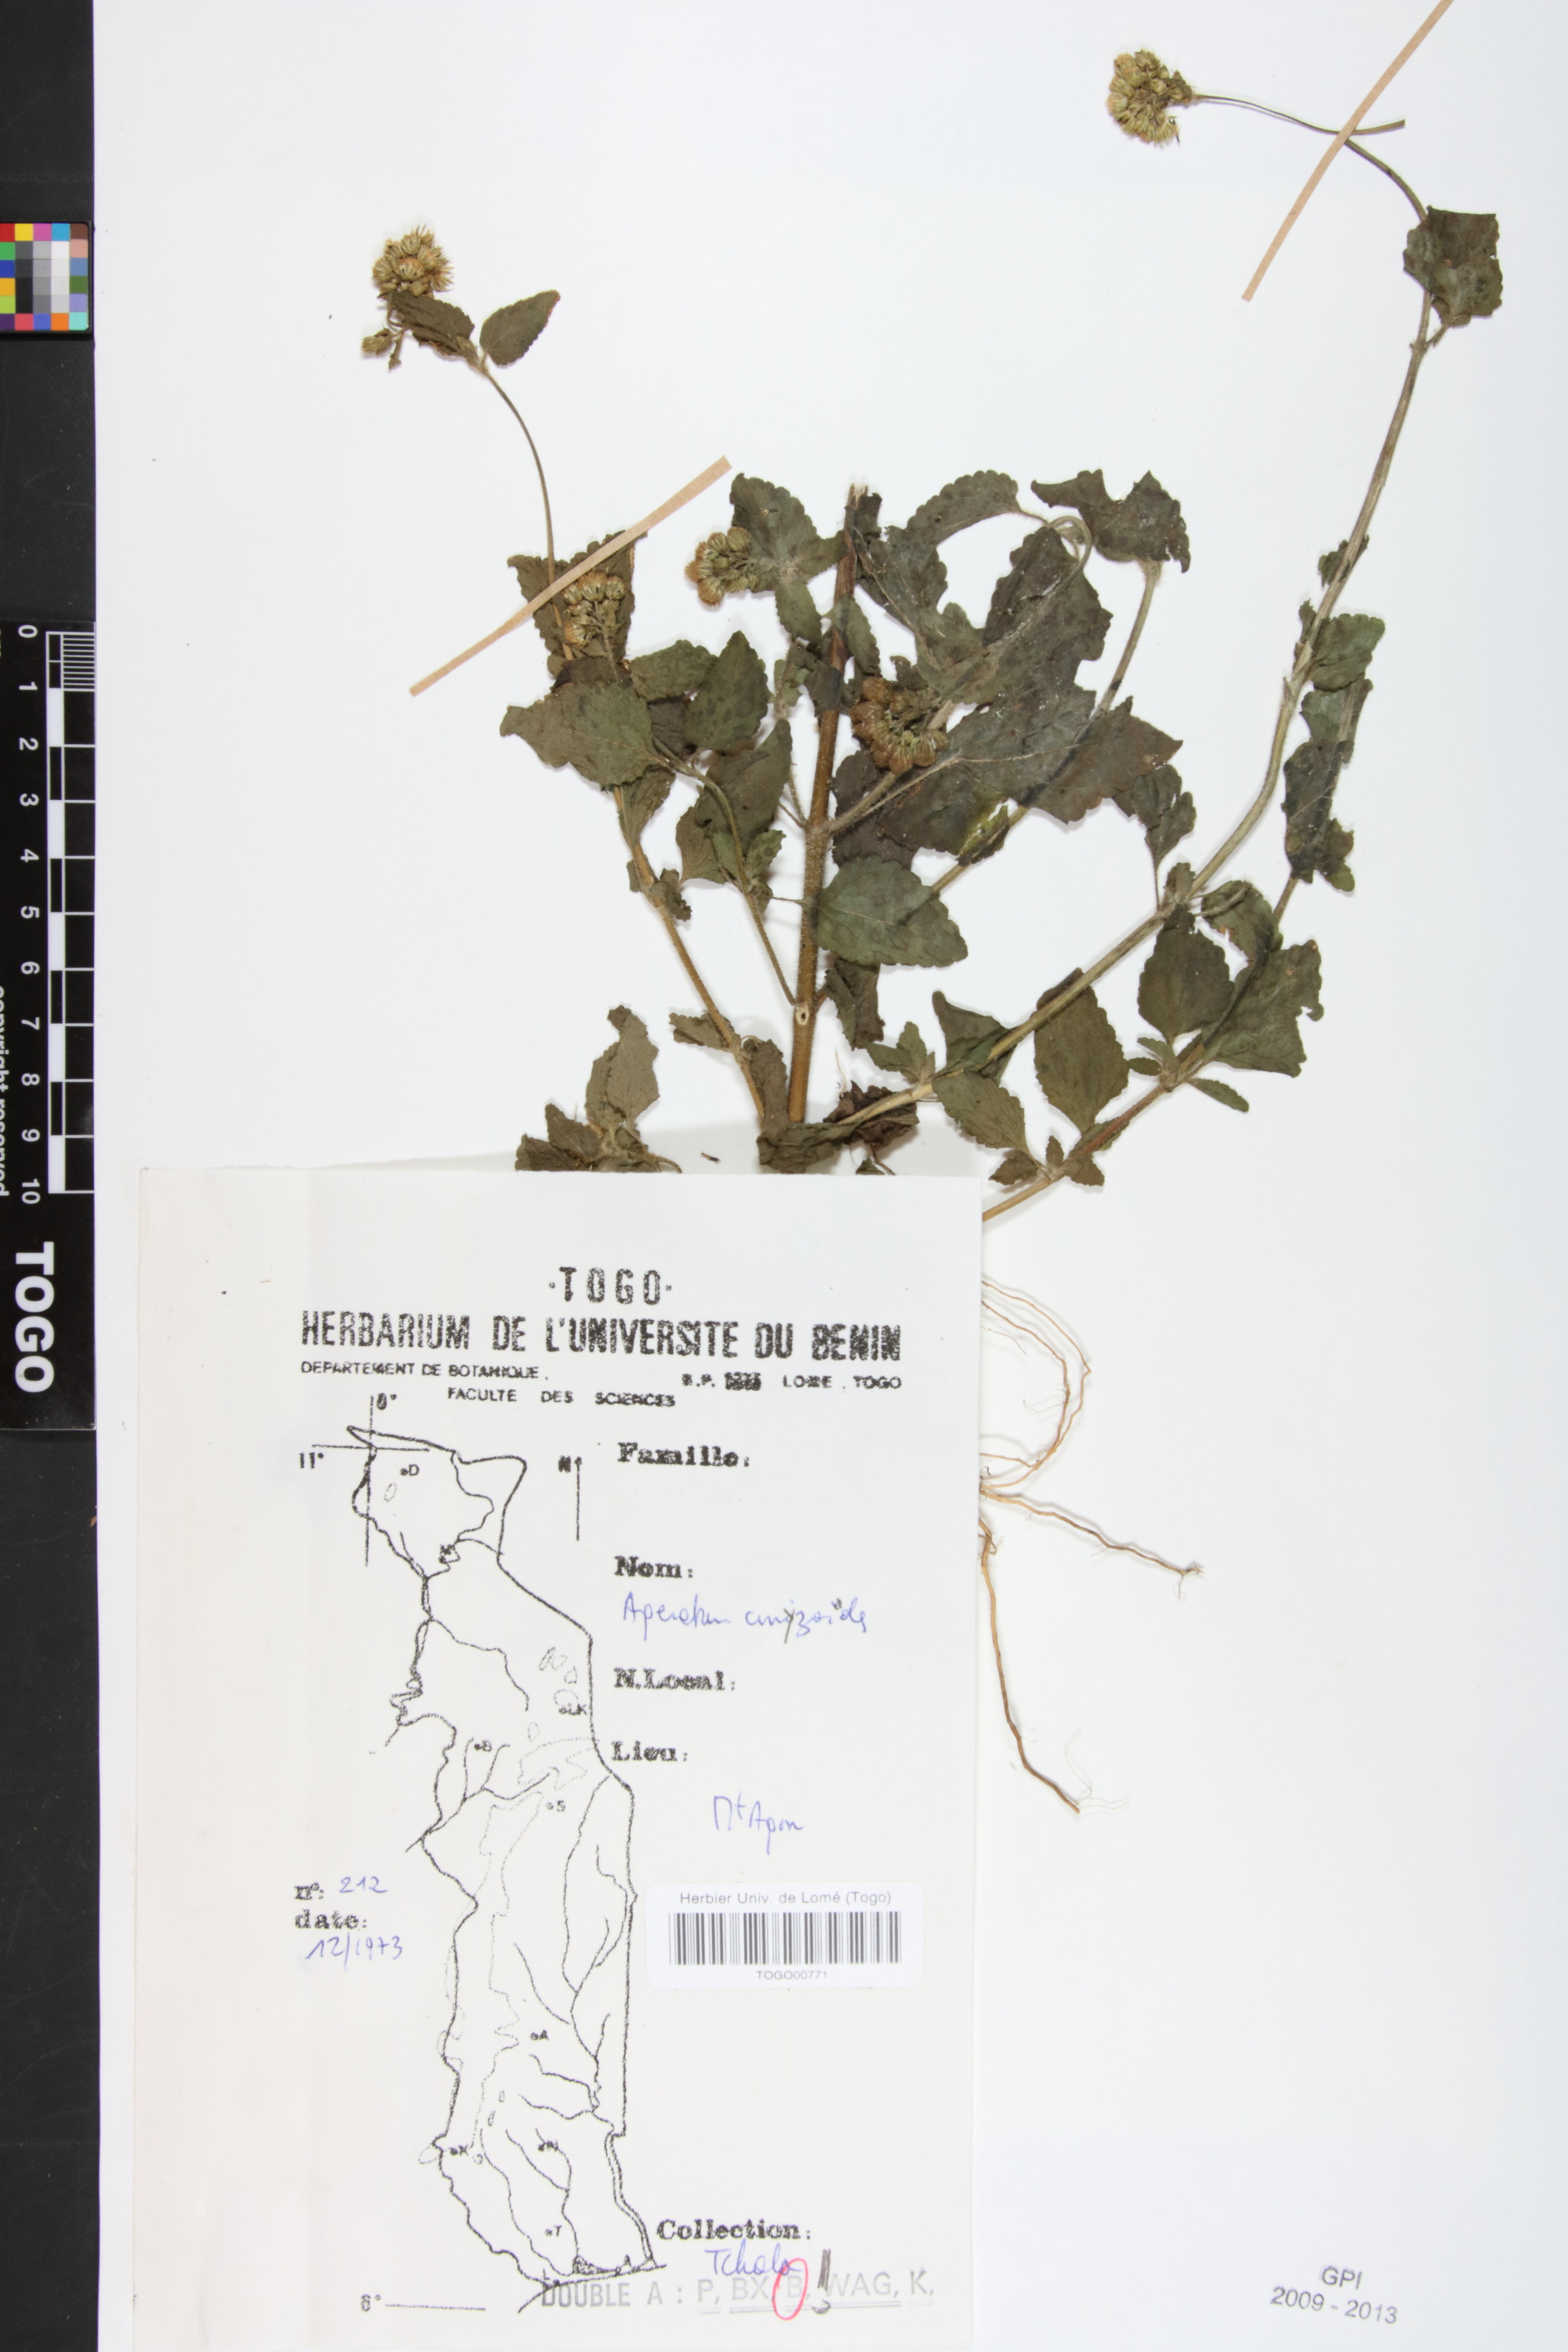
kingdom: Plantae
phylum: Tracheophyta
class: Magnoliopsida
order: Asterales
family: Asteraceae
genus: Ageratum
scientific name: Ageratum conyzoides
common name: Tropical whiteweed
